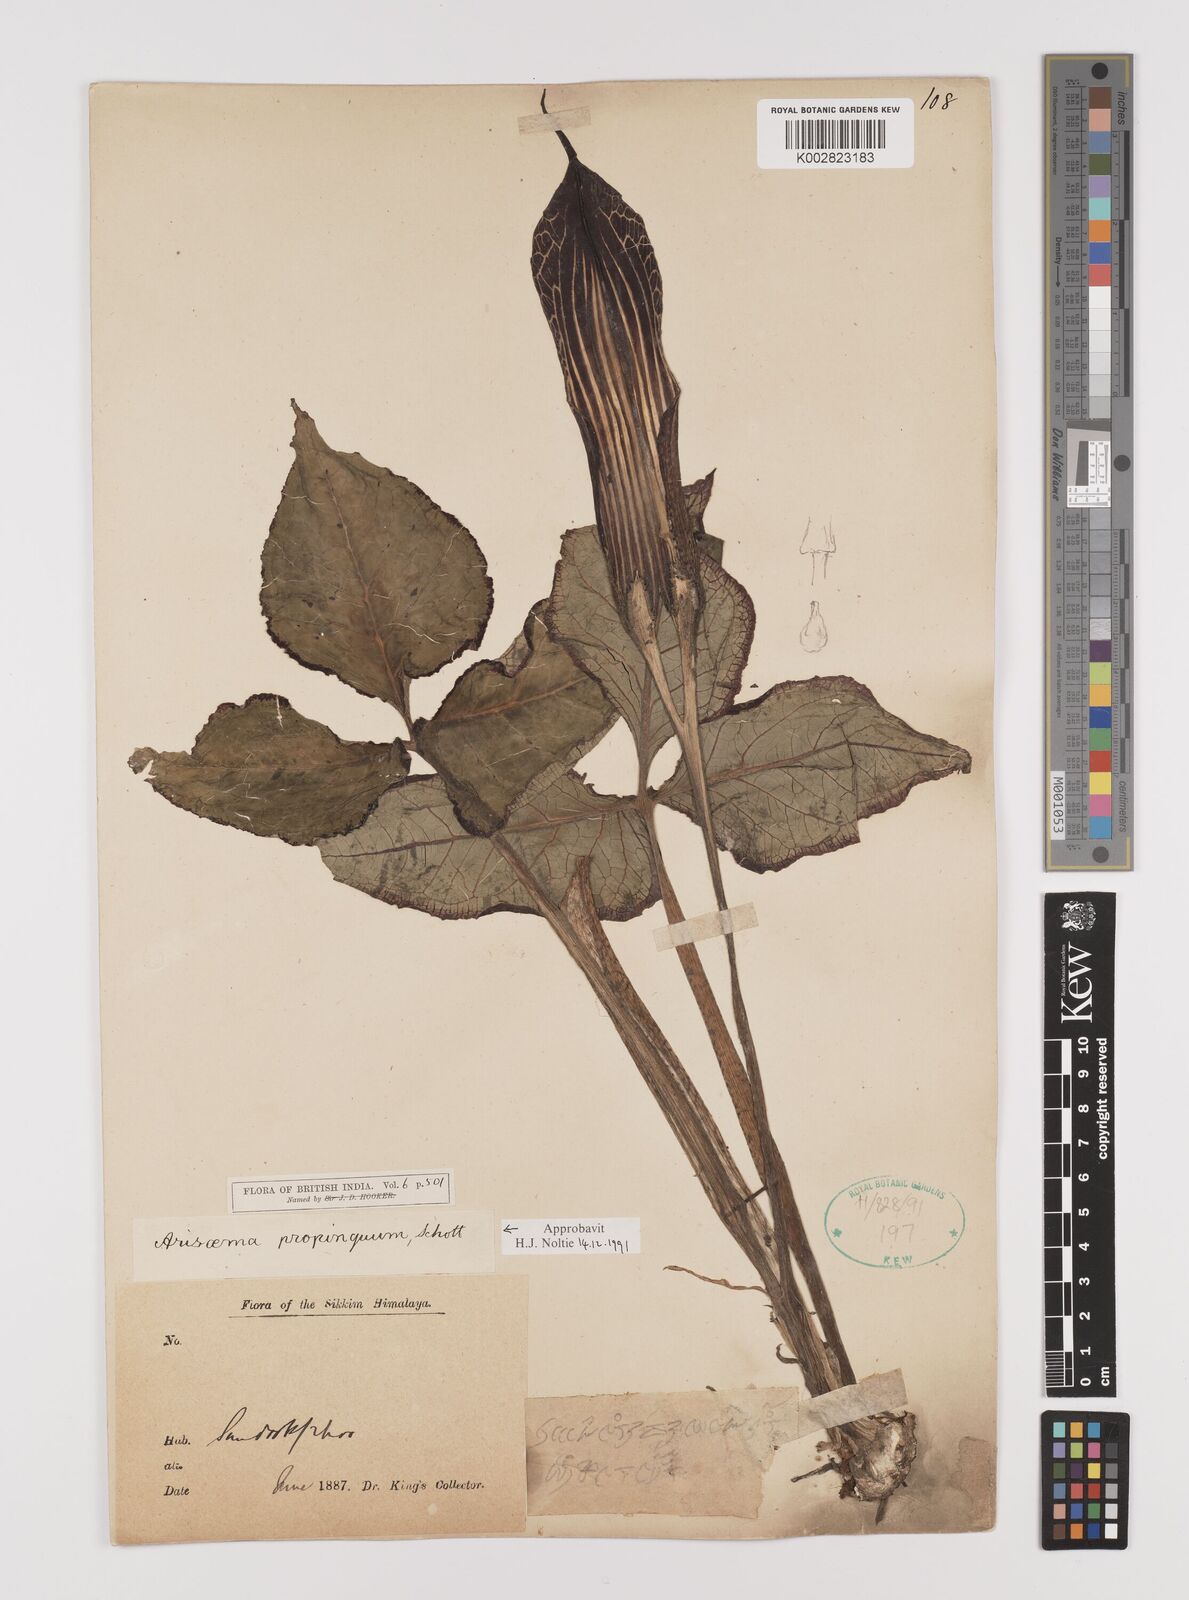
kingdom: Plantae
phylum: Tracheophyta
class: Liliopsida
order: Alismatales
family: Araceae
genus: Arisaema
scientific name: Arisaema propinquum
